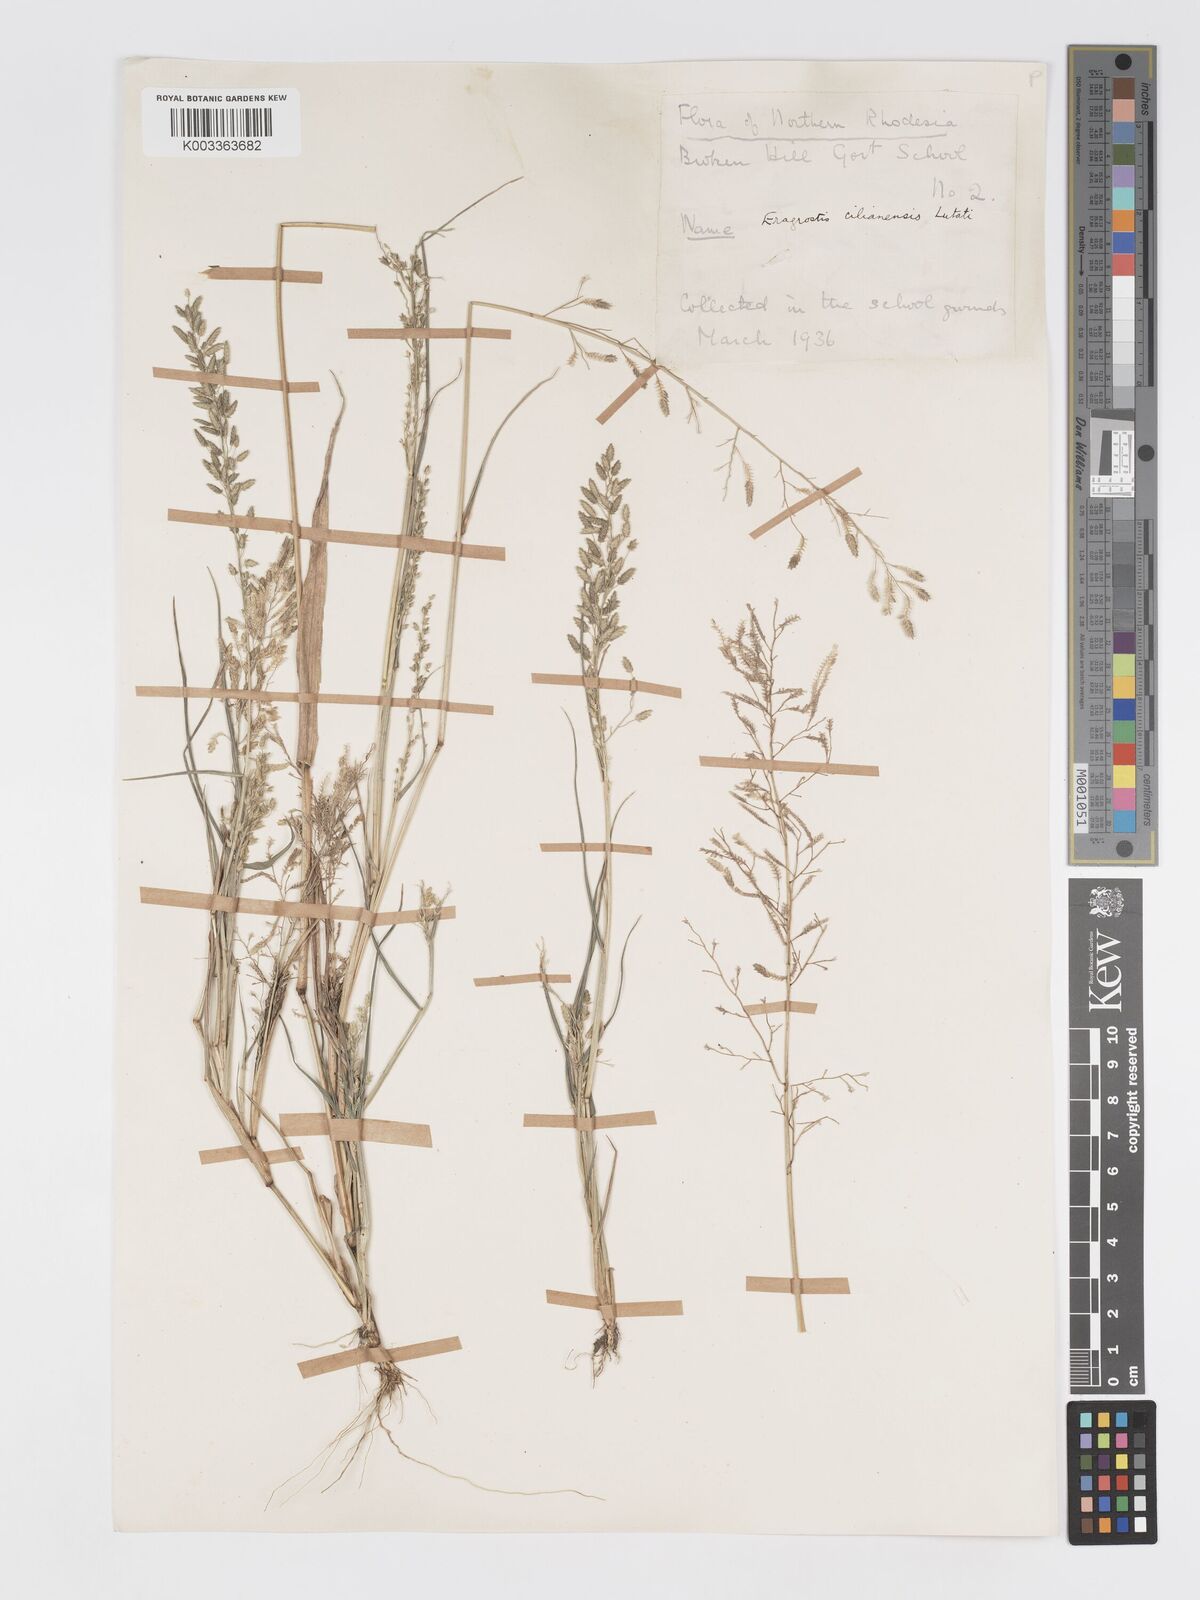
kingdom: Plantae
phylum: Tracheophyta
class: Liliopsida
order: Poales
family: Poaceae
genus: Eragrostis
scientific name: Eragrostis cilianensis
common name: Stinkgrass
